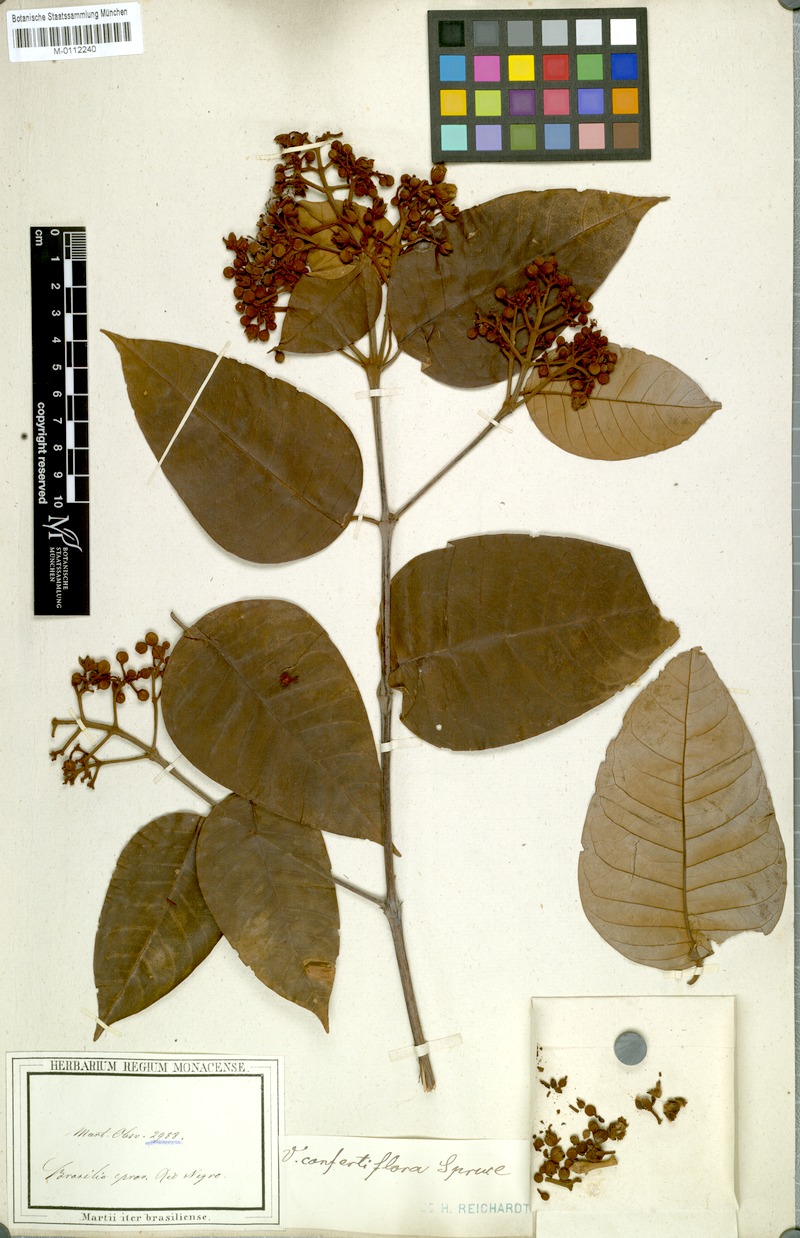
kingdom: Plantae
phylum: Tracheophyta
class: Magnoliopsida
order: Malpighiales
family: Hypericaceae
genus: Vismia
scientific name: Vismia baccifera
